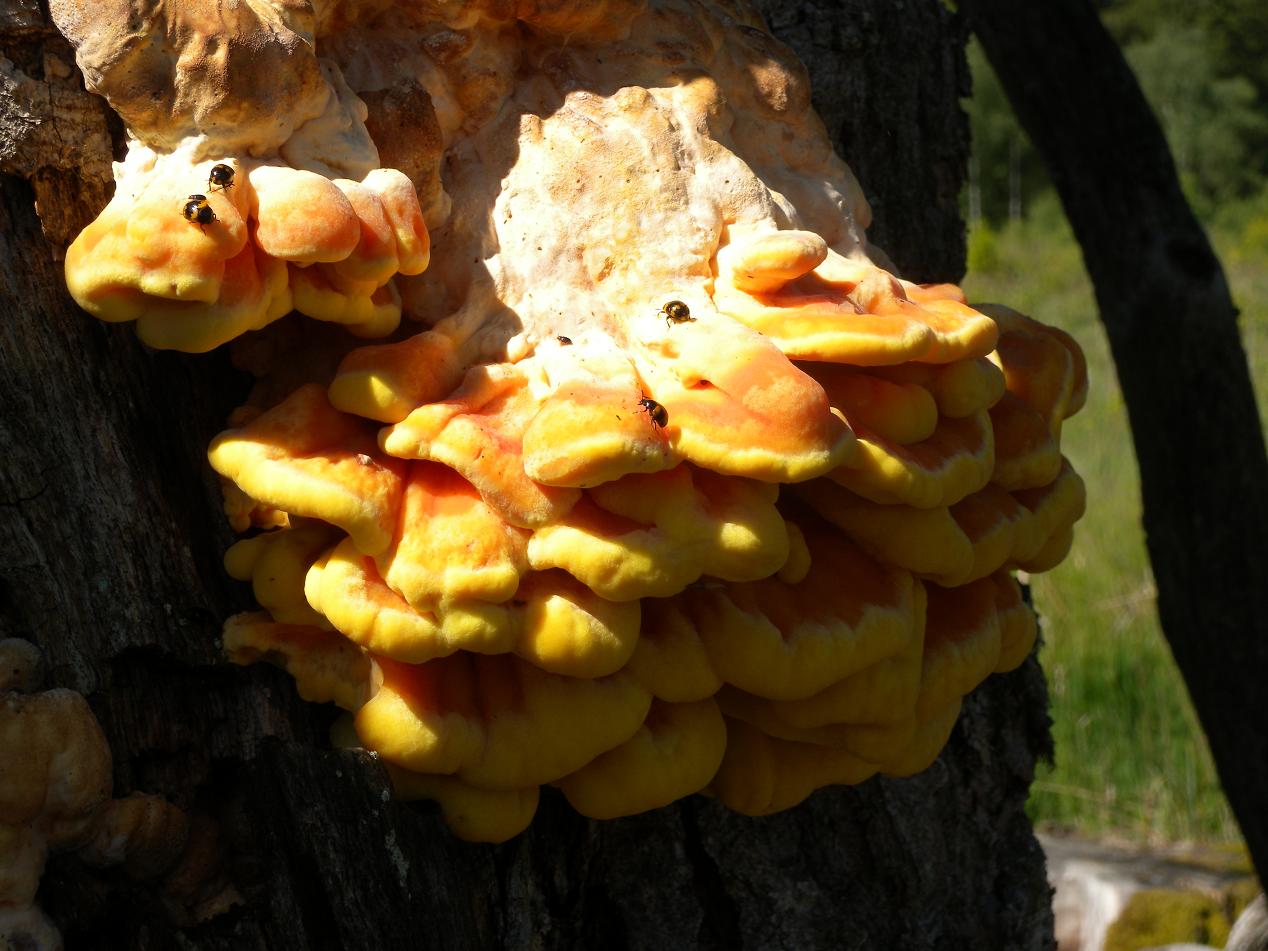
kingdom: Fungi
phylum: Basidiomycota
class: Agaricomycetes
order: Polyporales
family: Laetiporaceae
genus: Laetiporus
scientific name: Laetiporus sulphureus
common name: svovlporesvamp
